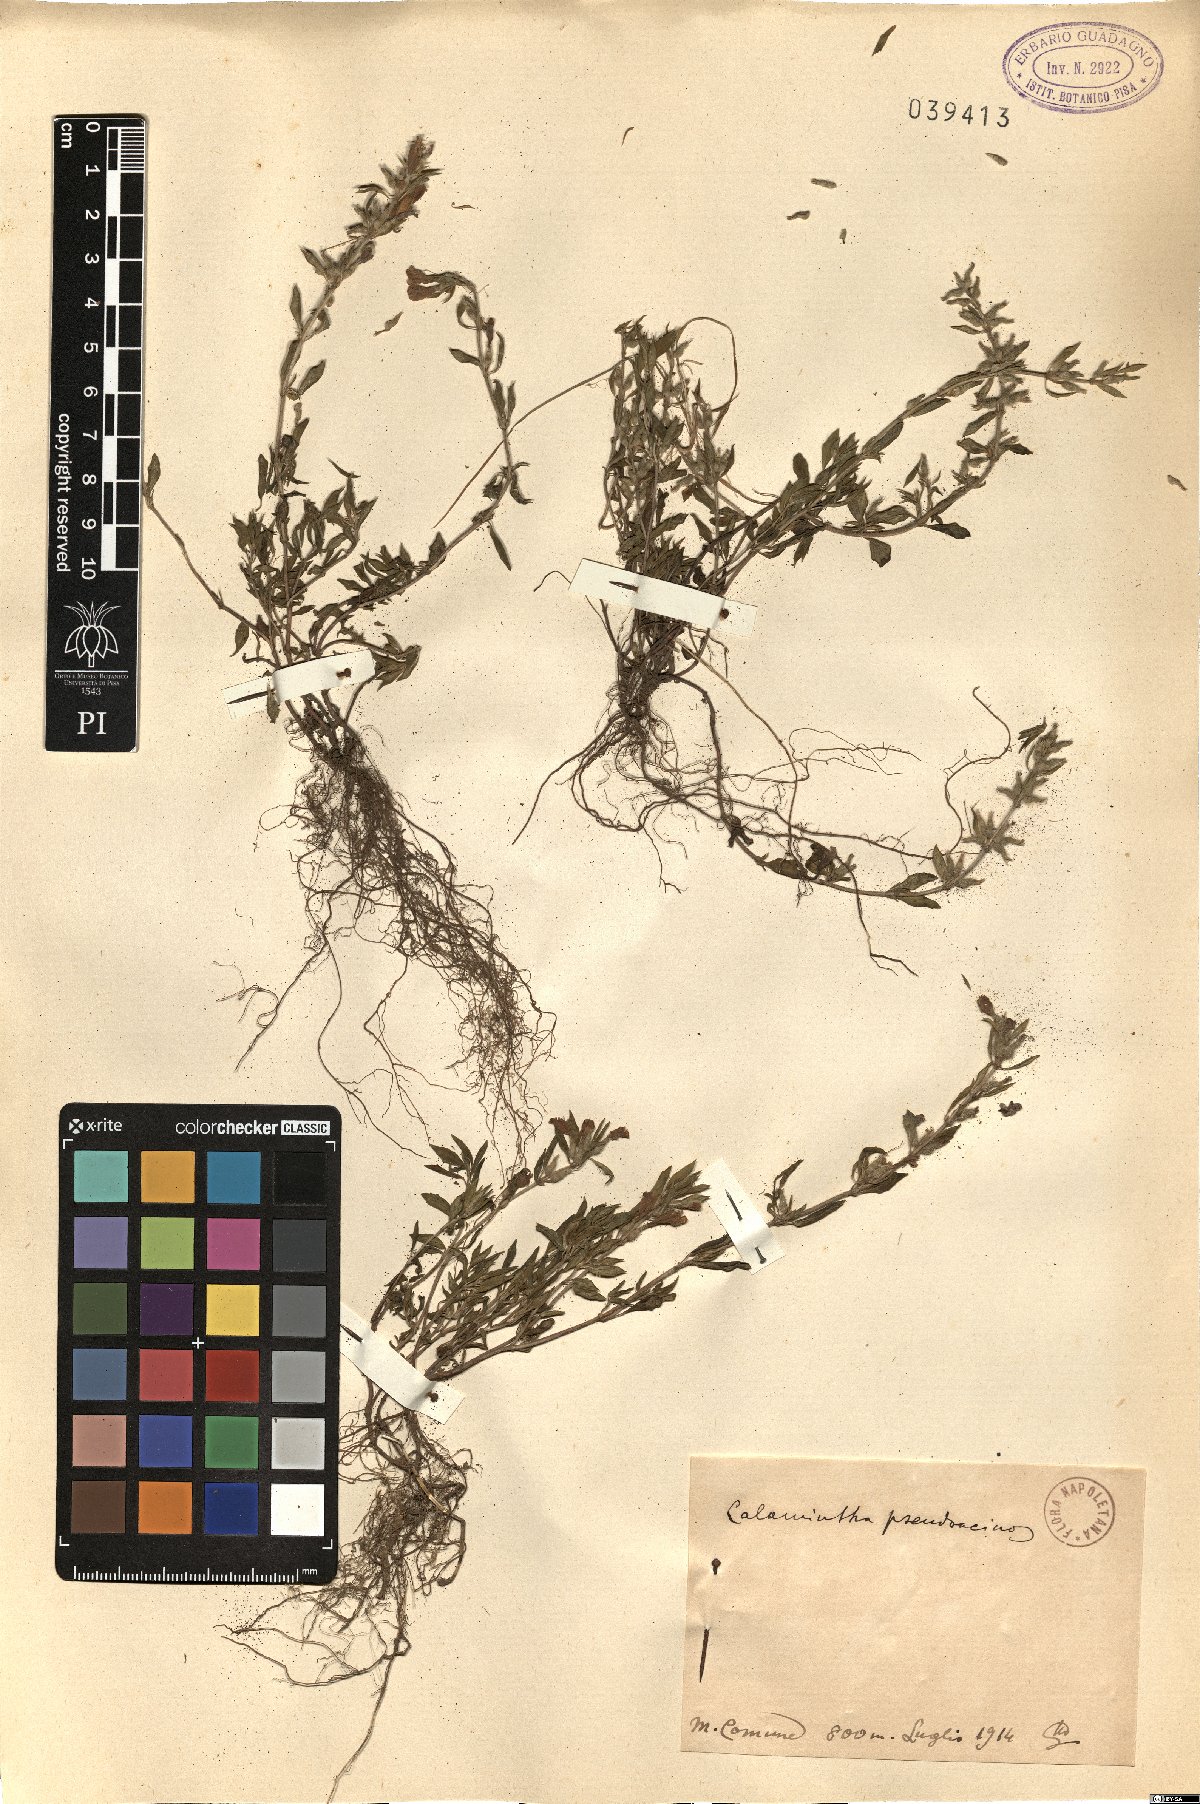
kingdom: Plantae
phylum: Tracheophyta
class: Magnoliopsida
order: Lamiales
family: Lamiaceae
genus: Clinopodium
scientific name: Clinopodium alpinum
